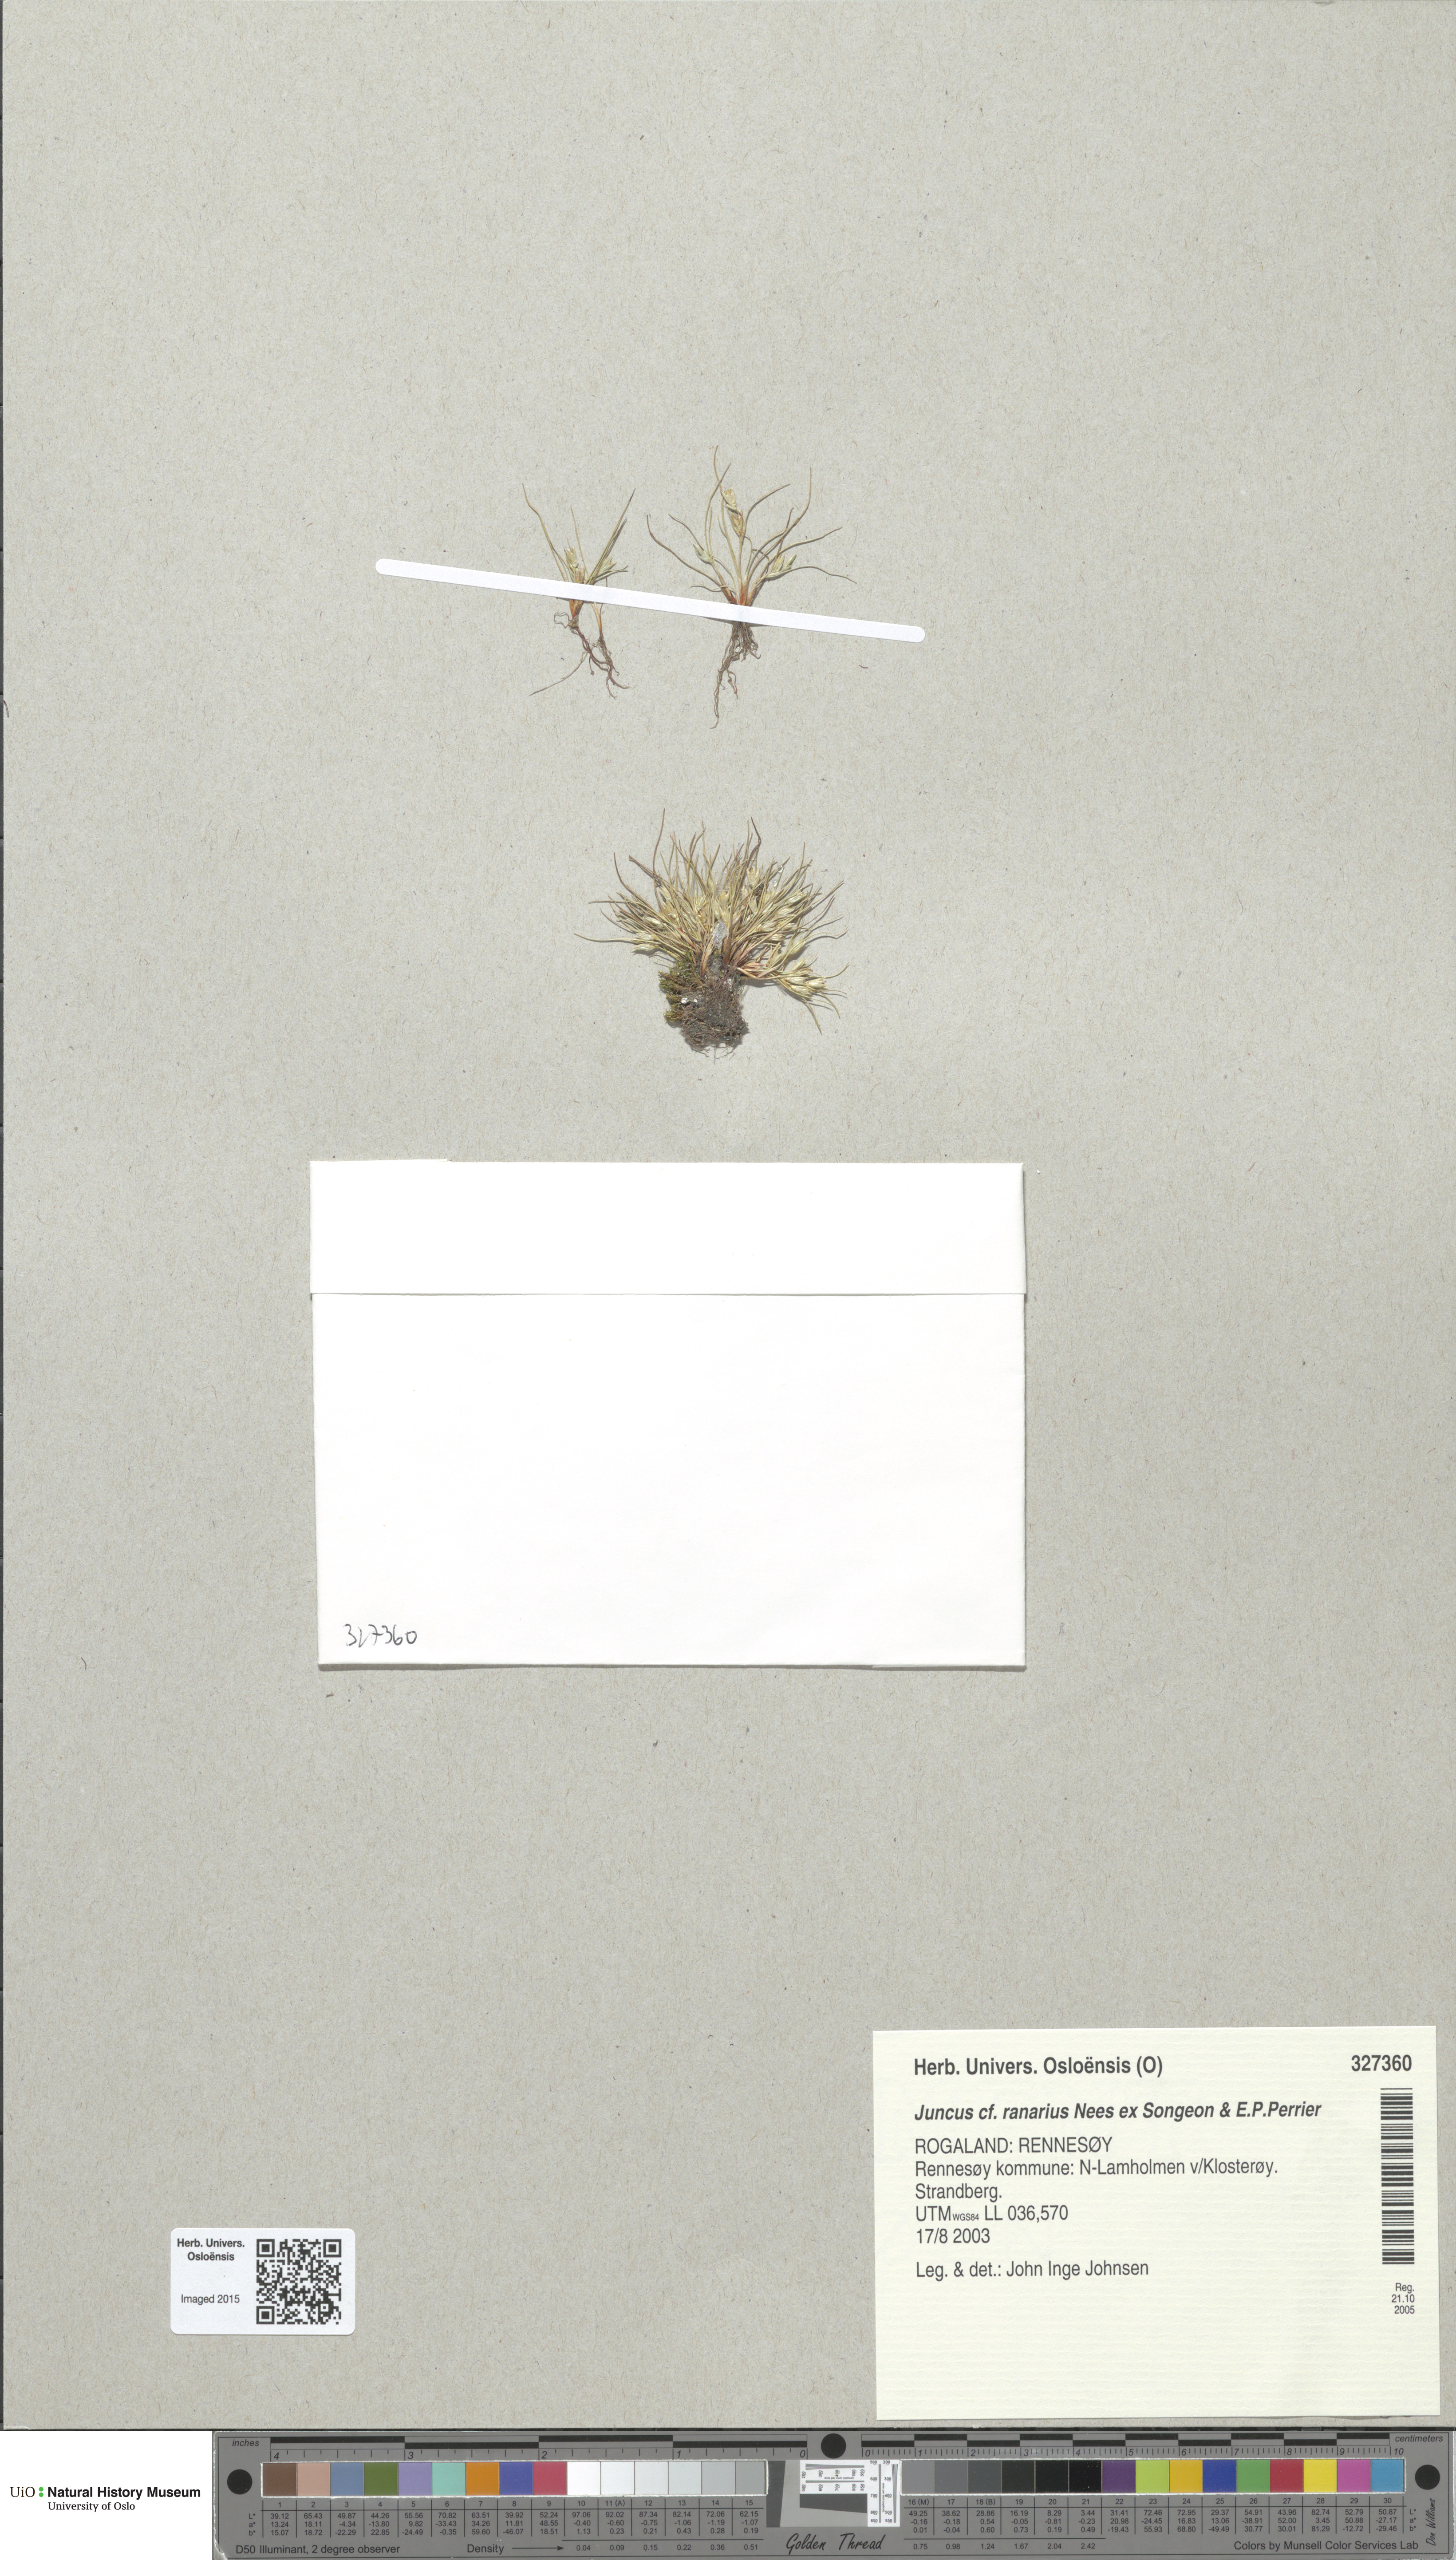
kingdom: Plantae
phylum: Tracheophyta
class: Liliopsida
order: Poales
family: Juncaceae
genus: Juncus
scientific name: Juncus ranarius
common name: Frog rush
